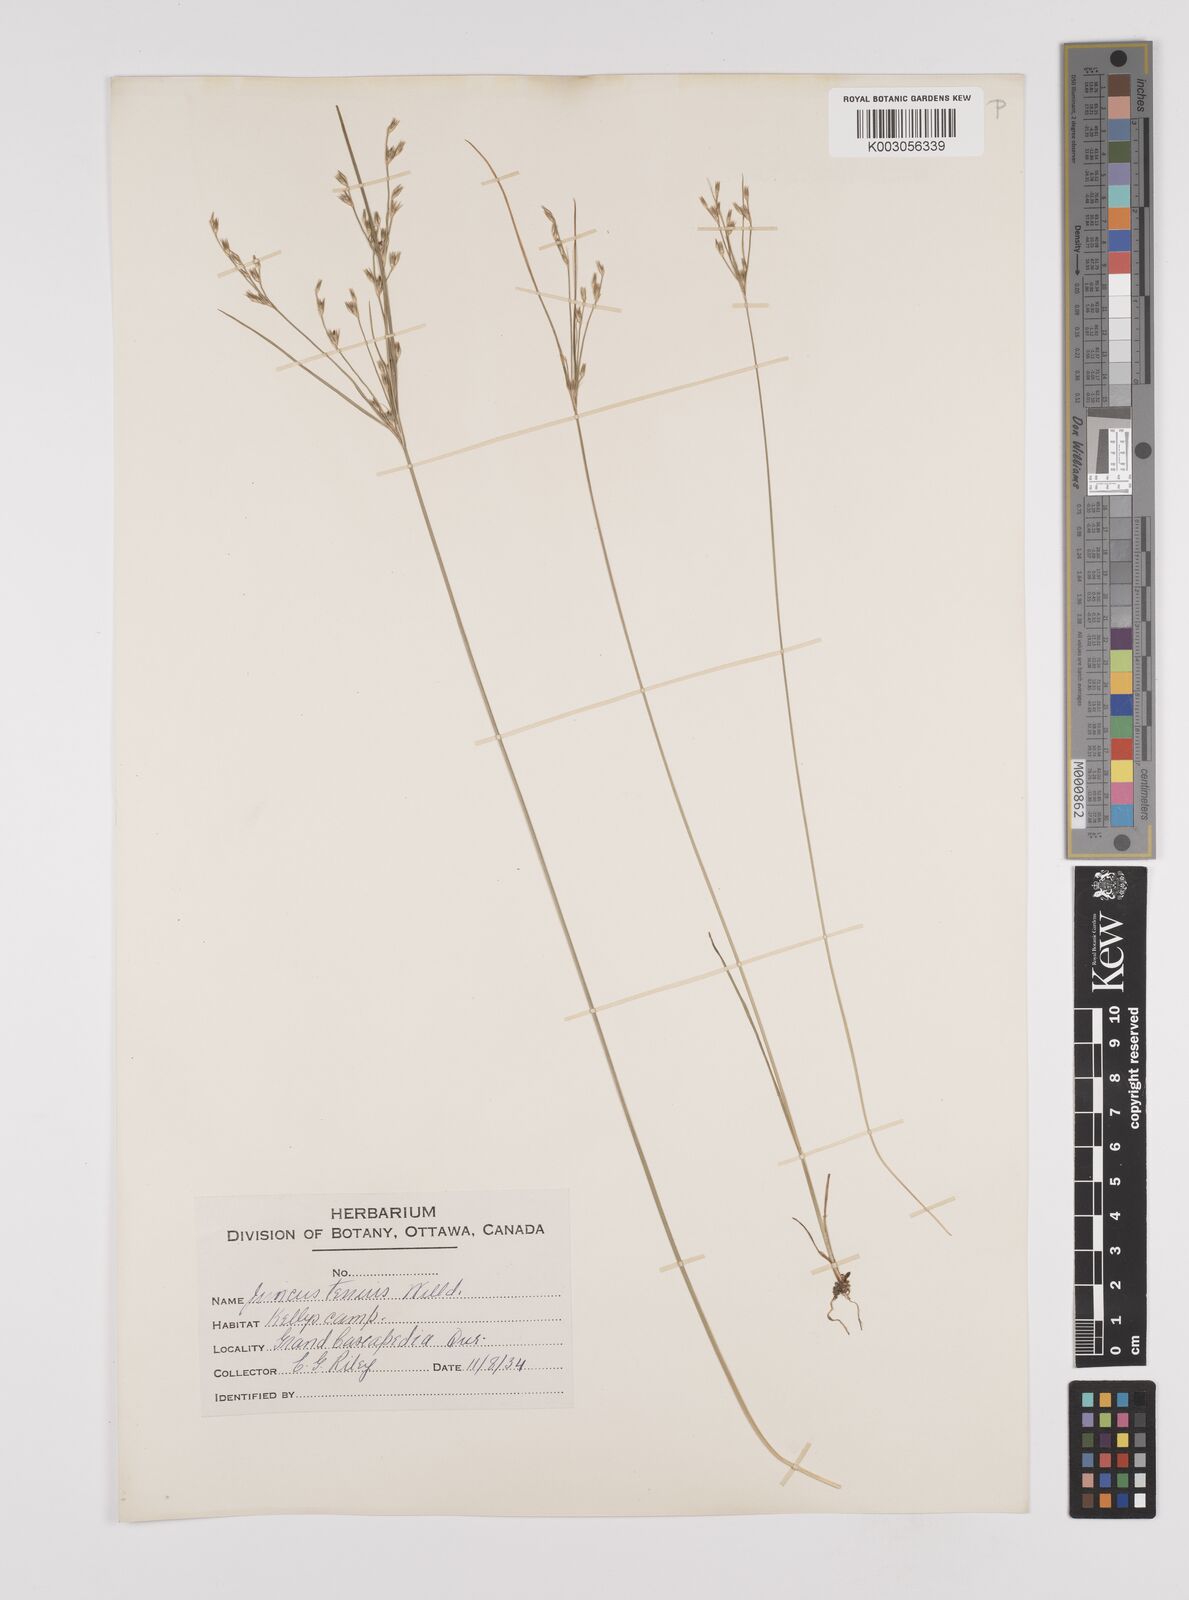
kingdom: Plantae
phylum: Tracheophyta
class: Liliopsida
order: Poales
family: Juncaceae
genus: Juncus
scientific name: Juncus tenuis
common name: Slender rush
